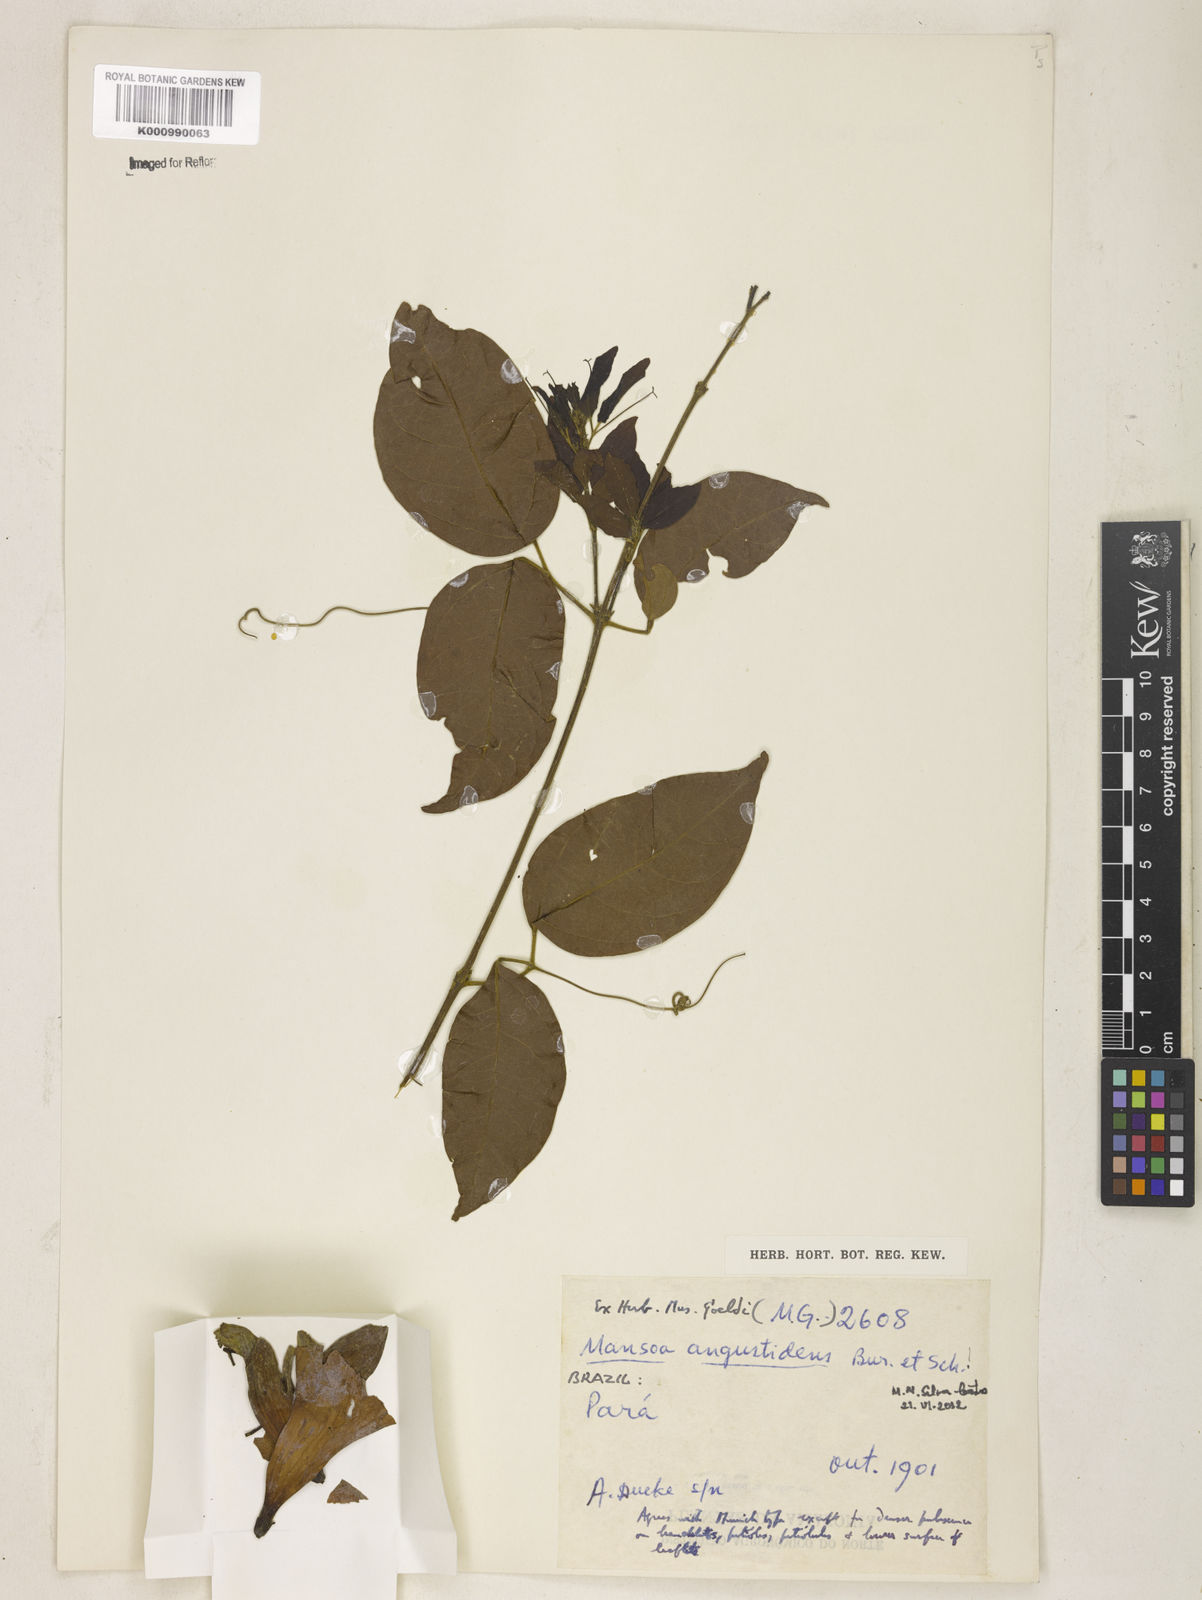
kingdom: Plantae
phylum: Tracheophyta
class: Magnoliopsida
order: Lamiales
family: Bignoniaceae
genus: Mansoa
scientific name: Mansoa angustidens
